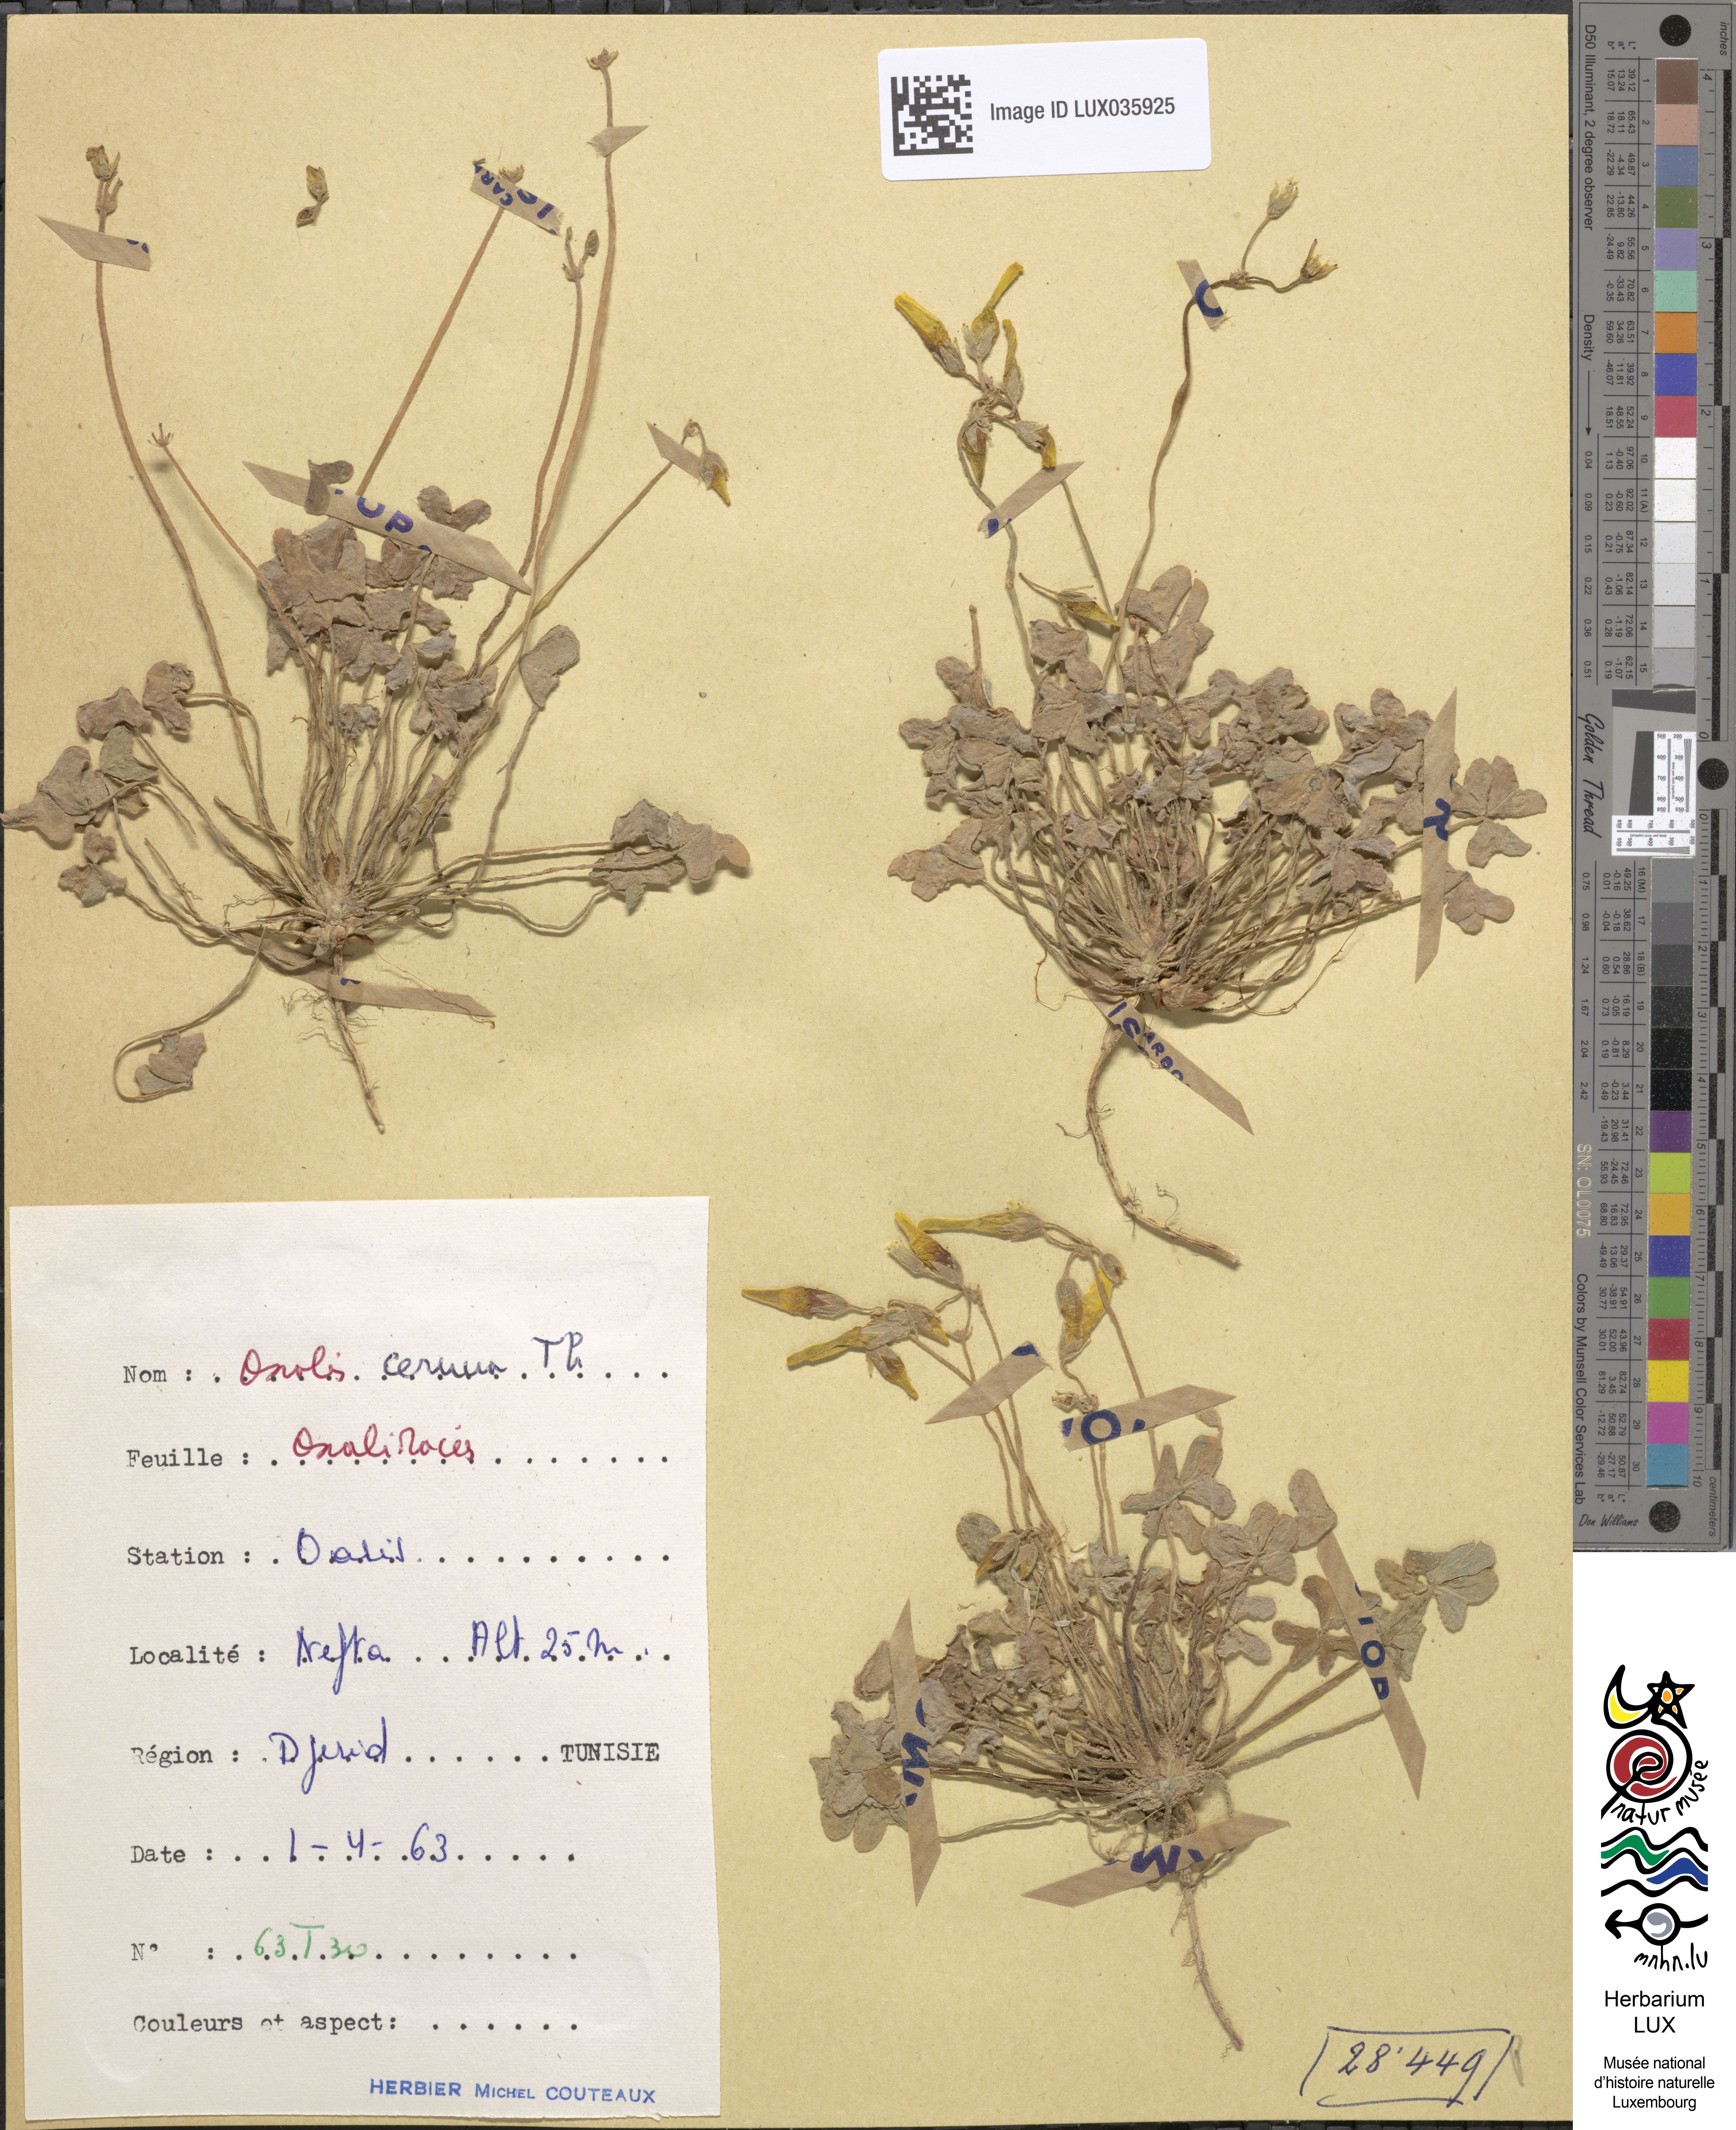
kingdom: Plantae
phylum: Tracheophyta
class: Magnoliopsida
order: Oxalidales
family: Oxalidaceae
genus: Oxalis
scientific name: Oxalis pes-caprae
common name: Bermuda-buttercup
